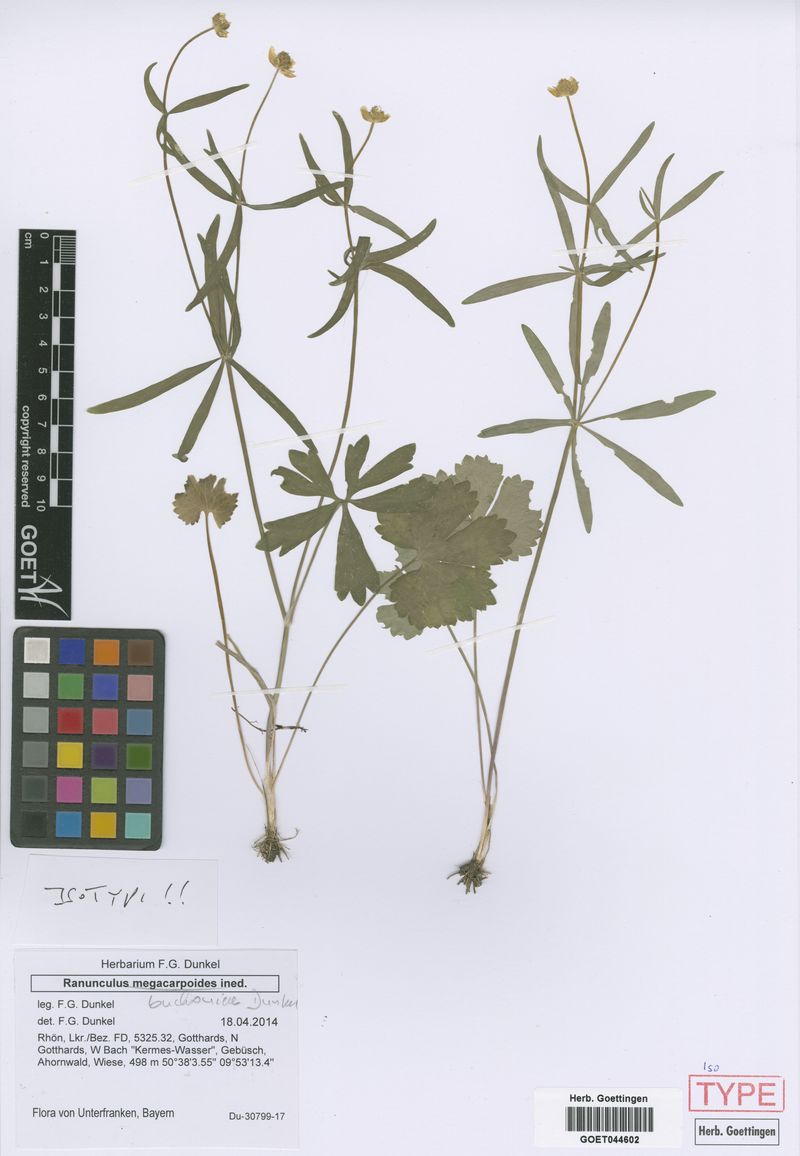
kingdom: Plantae
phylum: Tracheophyta
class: Magnoliopsida
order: Ranunculales
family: Ranunculaceae
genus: Ranunculus
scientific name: Ranunculus buchoniae
